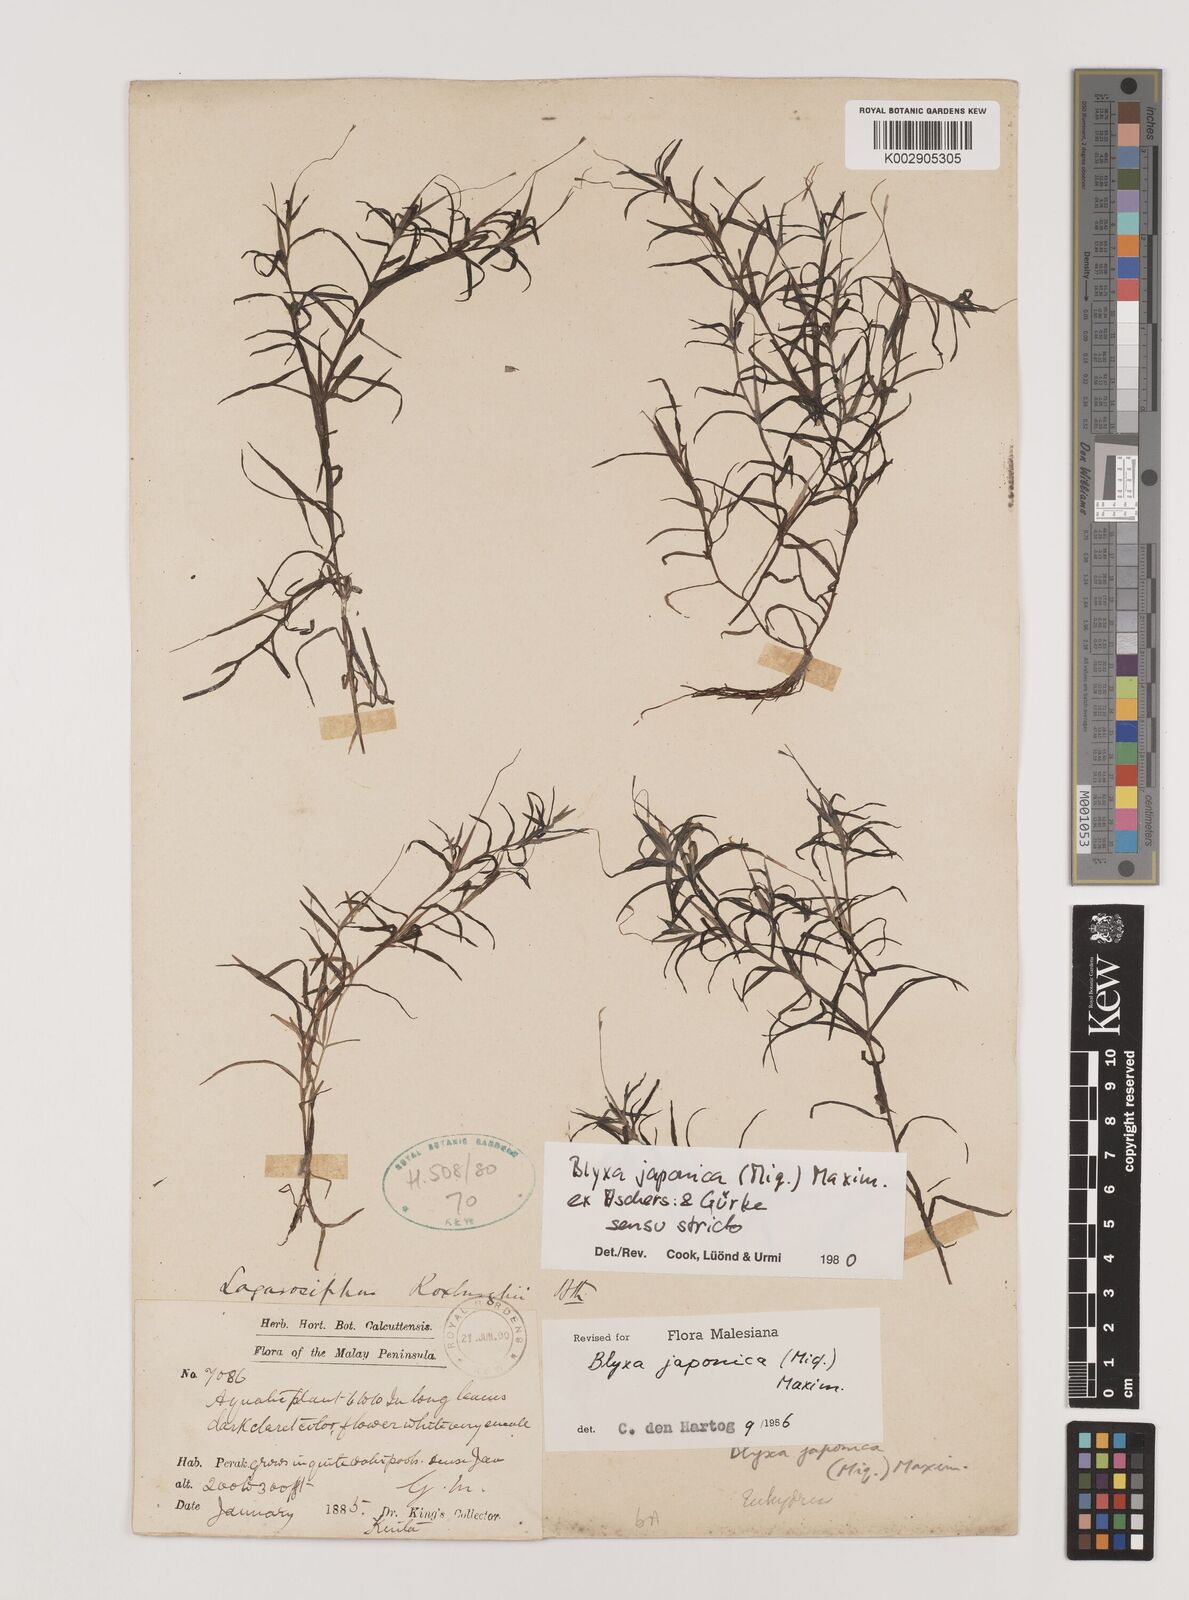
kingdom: Plantae
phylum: Tracheophyta
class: Liliopsida
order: Alismatales
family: Hydrocharitaceae
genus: Blyxa
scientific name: Blyxa japonica
